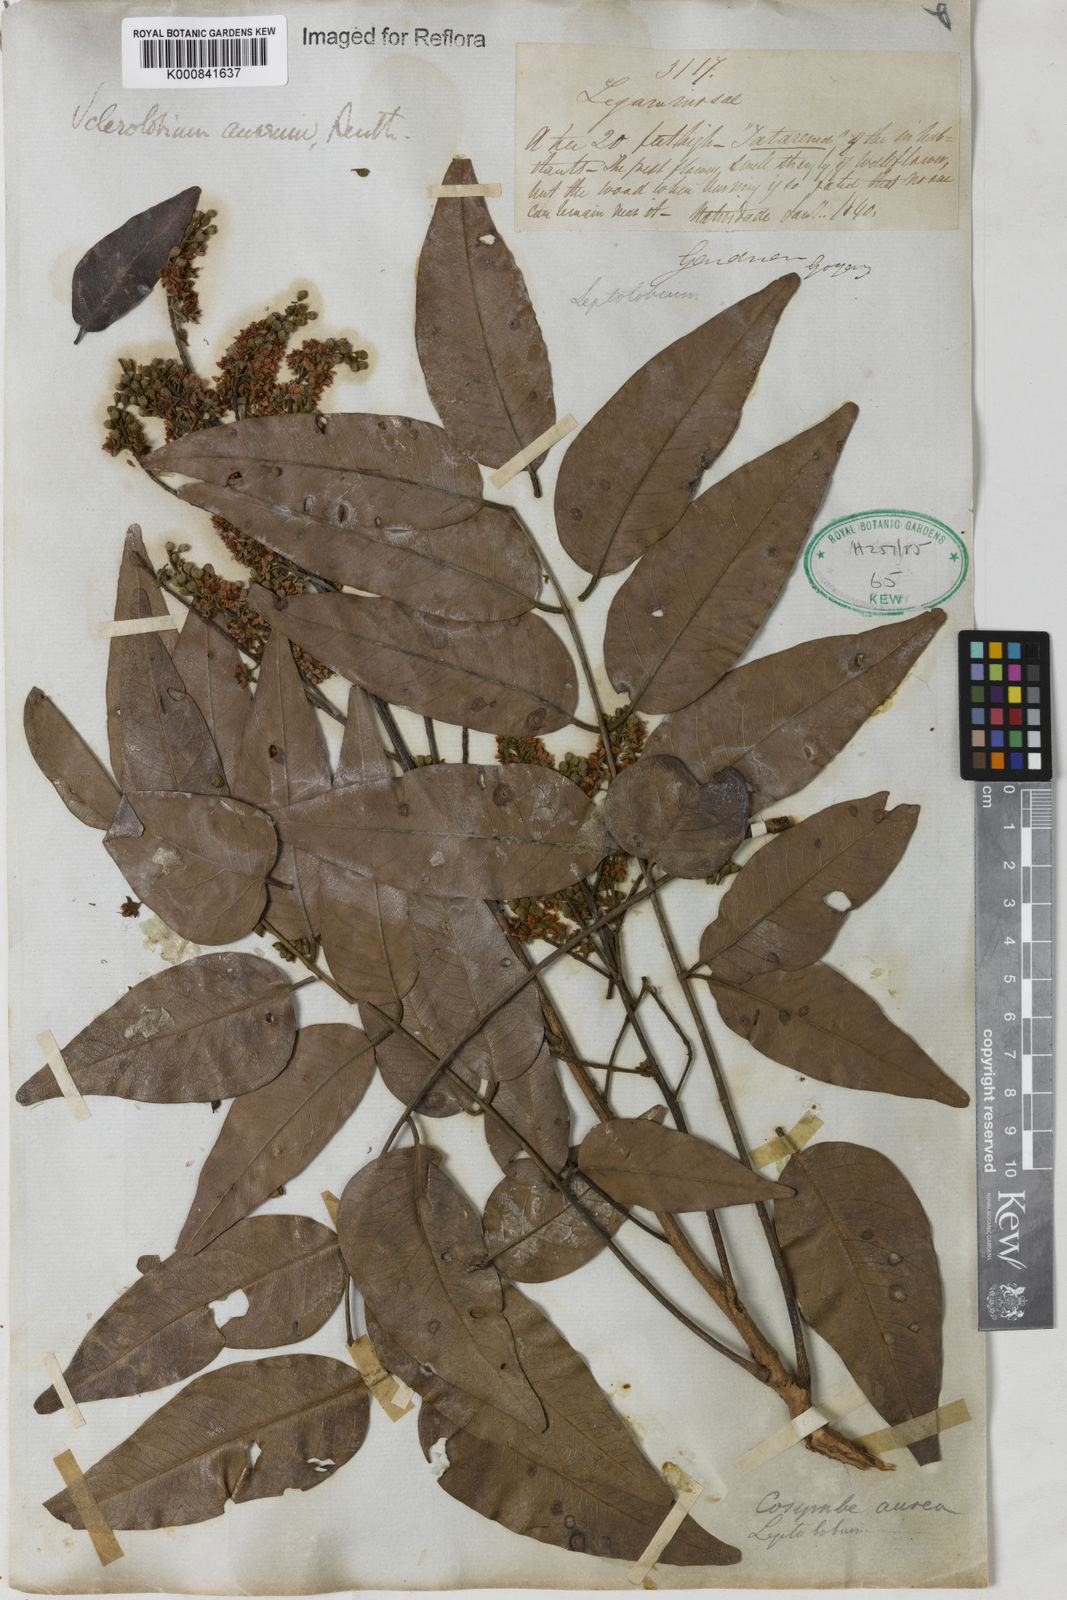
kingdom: Plantae
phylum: Tracheophyta
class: Magnoliopsida
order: Fabales
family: Fabaceae
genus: Tachigali
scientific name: Tachigali aurea
